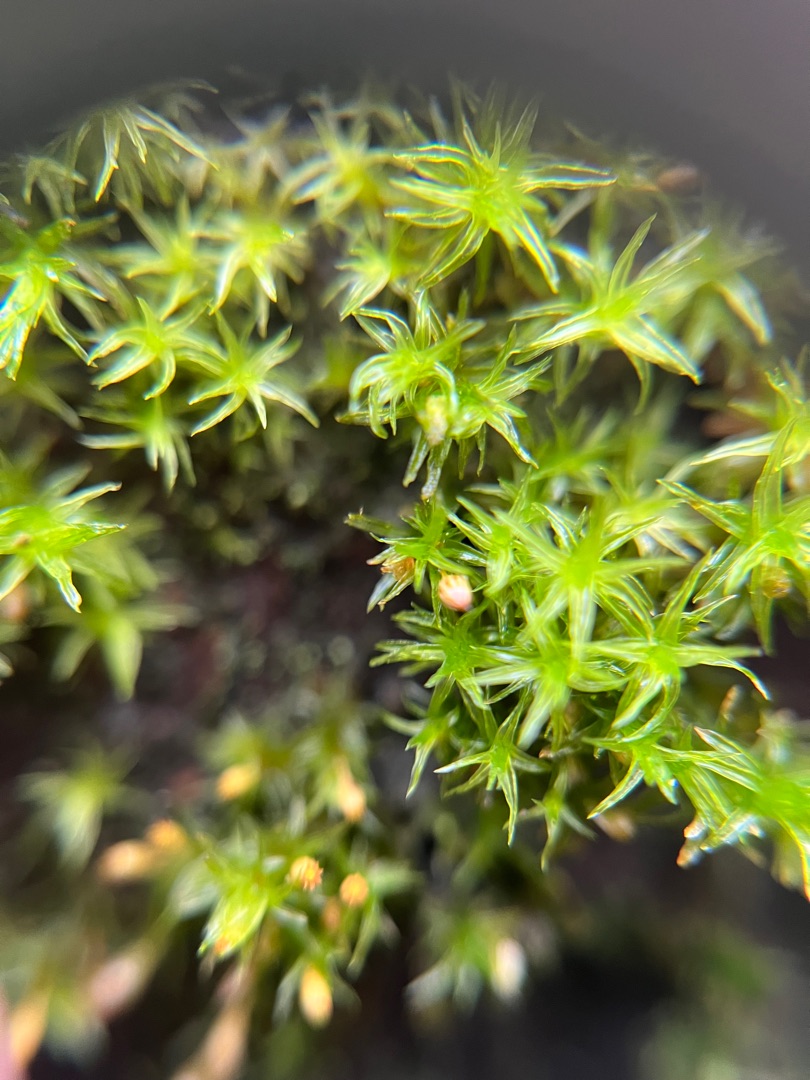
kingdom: Plantae
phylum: Bryophyta
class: Bryopsida
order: Orthotrichales
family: Orthotrichaceae
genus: Orthotrichum
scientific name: Orthotrichum pulchellum
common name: Smuk furehætte
